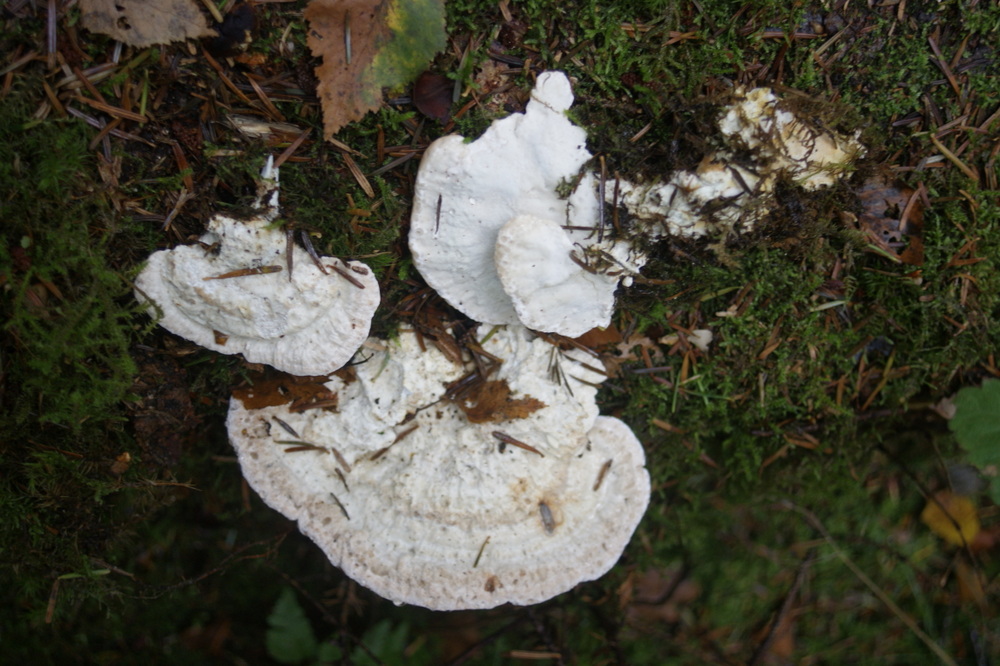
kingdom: Fungi
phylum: Basidiomycota
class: Agaricomycetes
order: Polyporales
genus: Calcipostia
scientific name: Calcipostia guttulata
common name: dråbe-kødporesvamp
